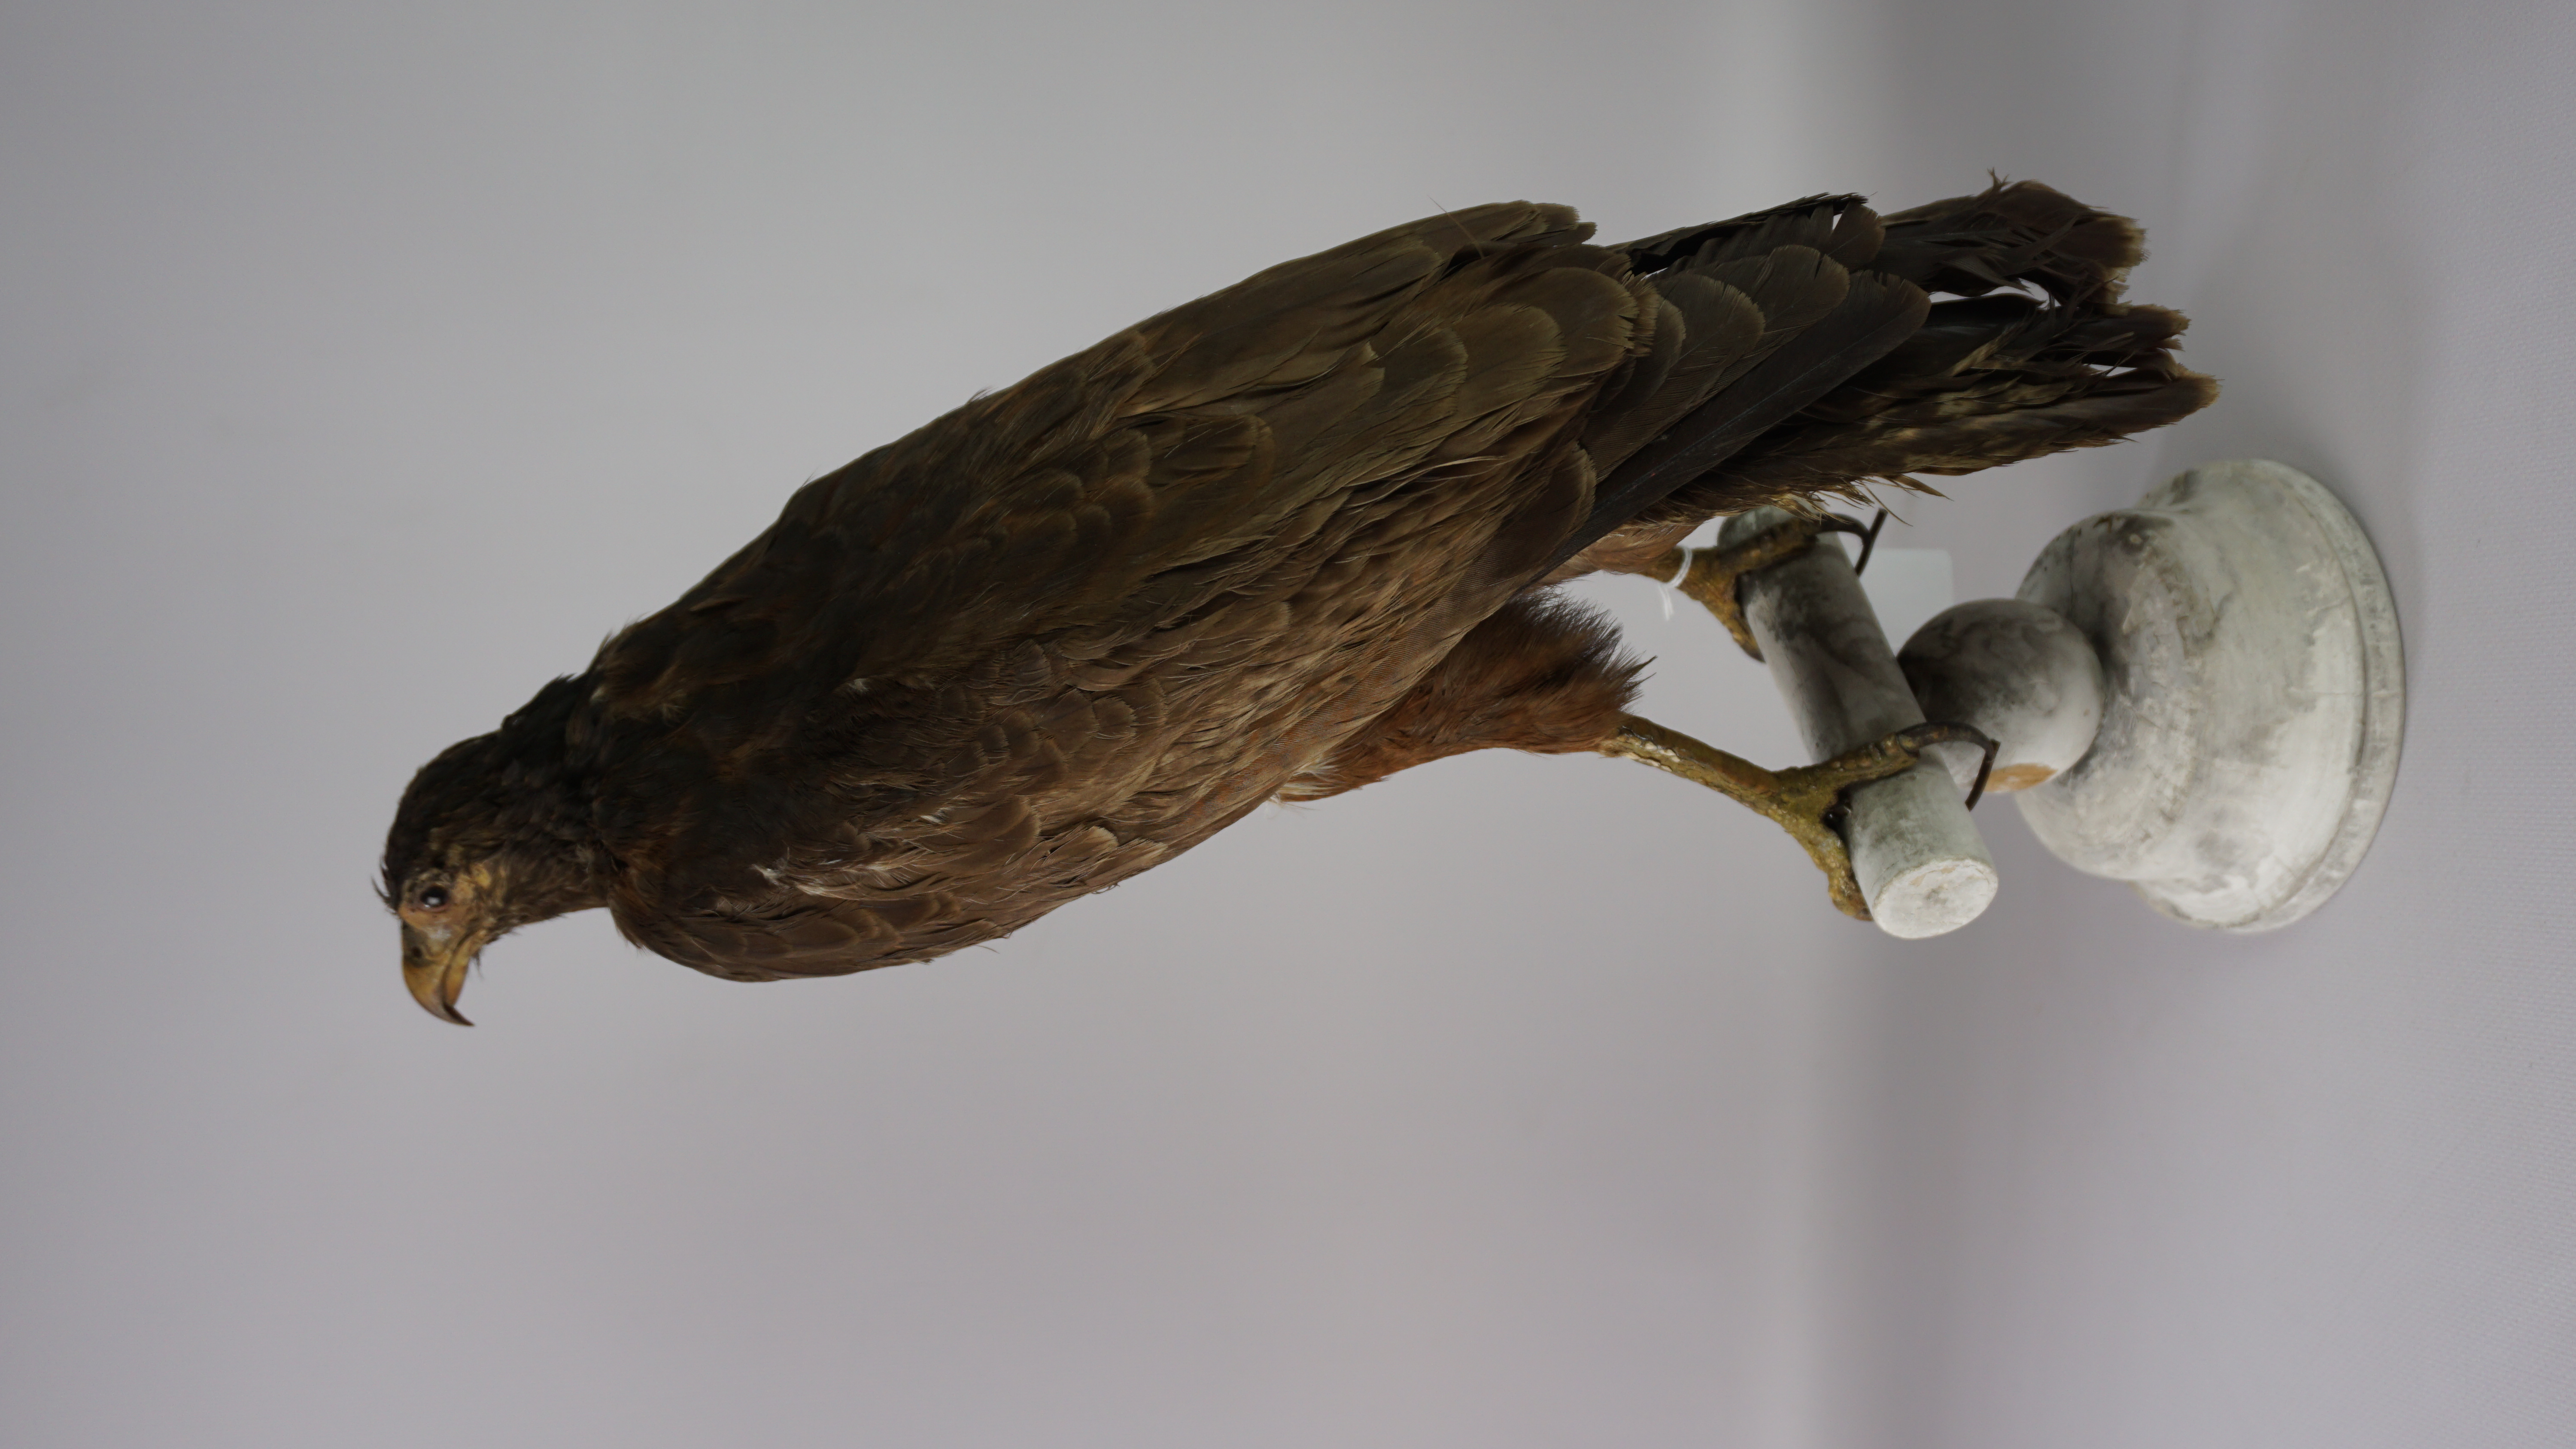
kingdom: Animalia
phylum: Chordata
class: Aves
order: Accipitriformes
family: Accipitridae
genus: Buteogallus
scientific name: Buteogallus aequinoctialis
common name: Rufous crab hawk
